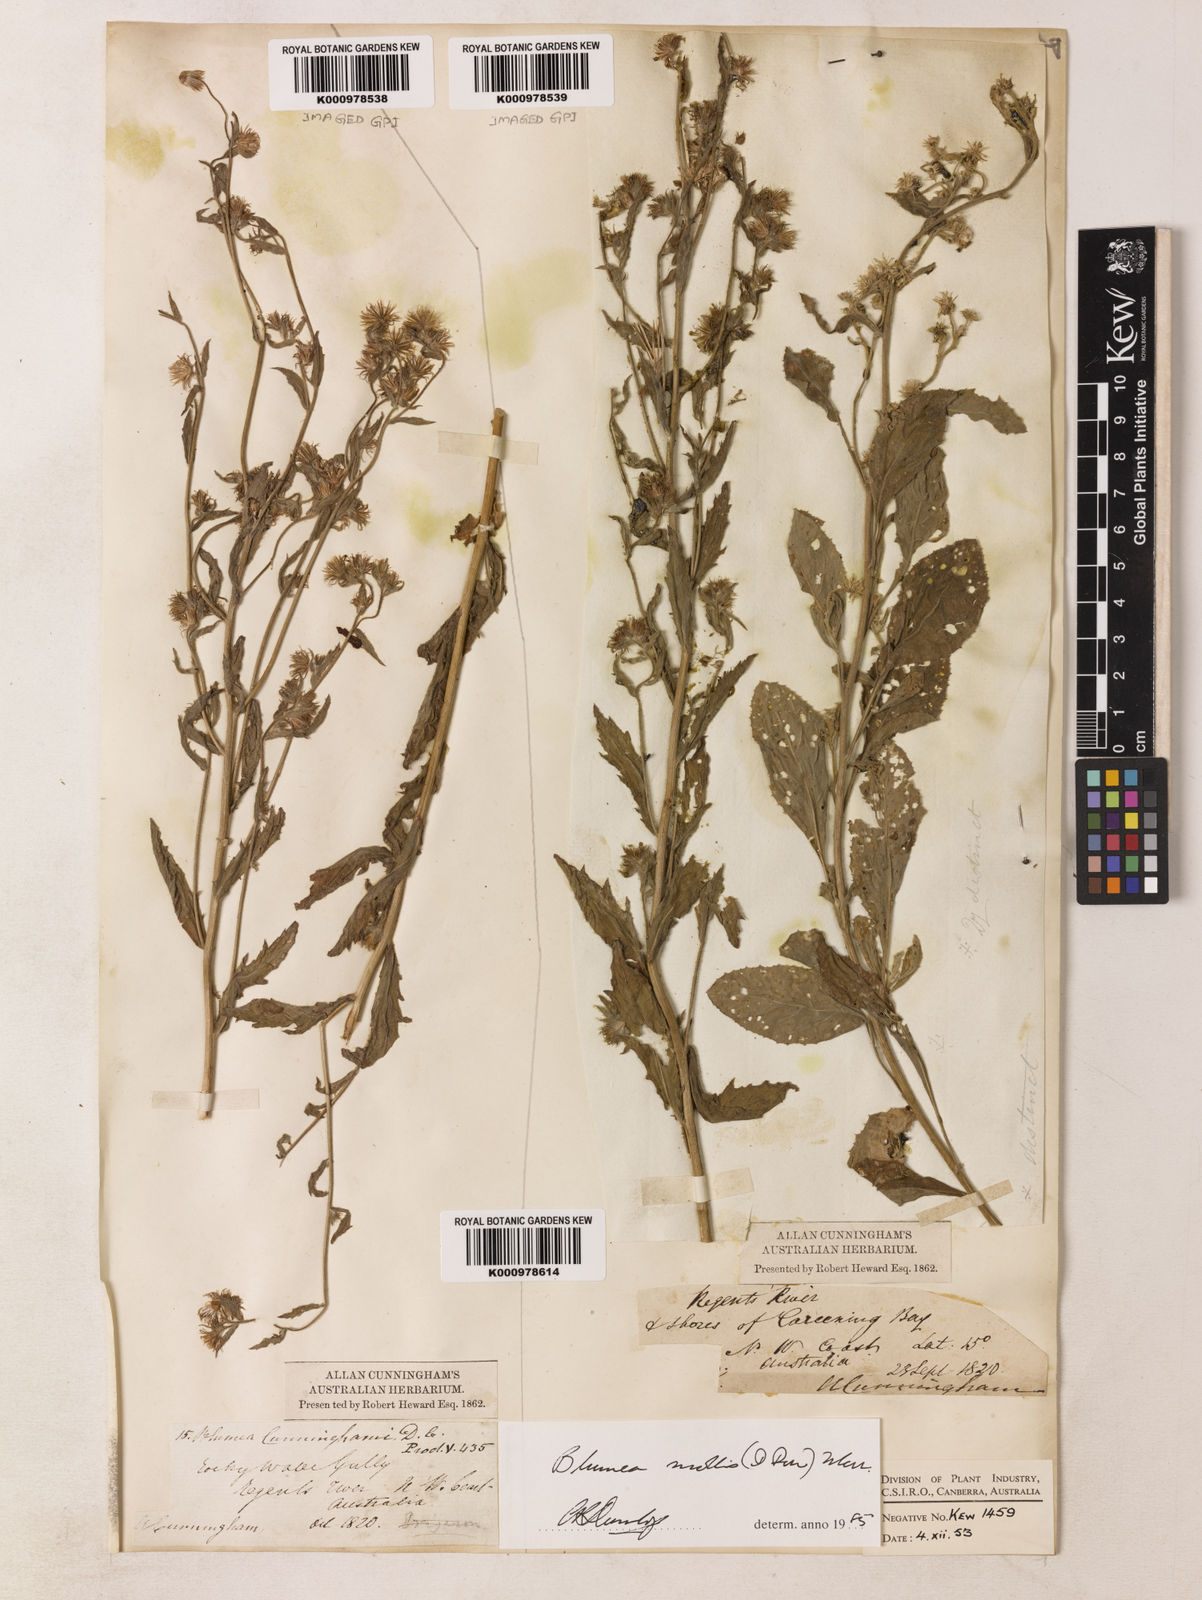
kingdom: Plantae
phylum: Tracheophyta
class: Magnoliopsida
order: Asterales
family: Asteraceae
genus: Blumea
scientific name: Blumea axillaris
